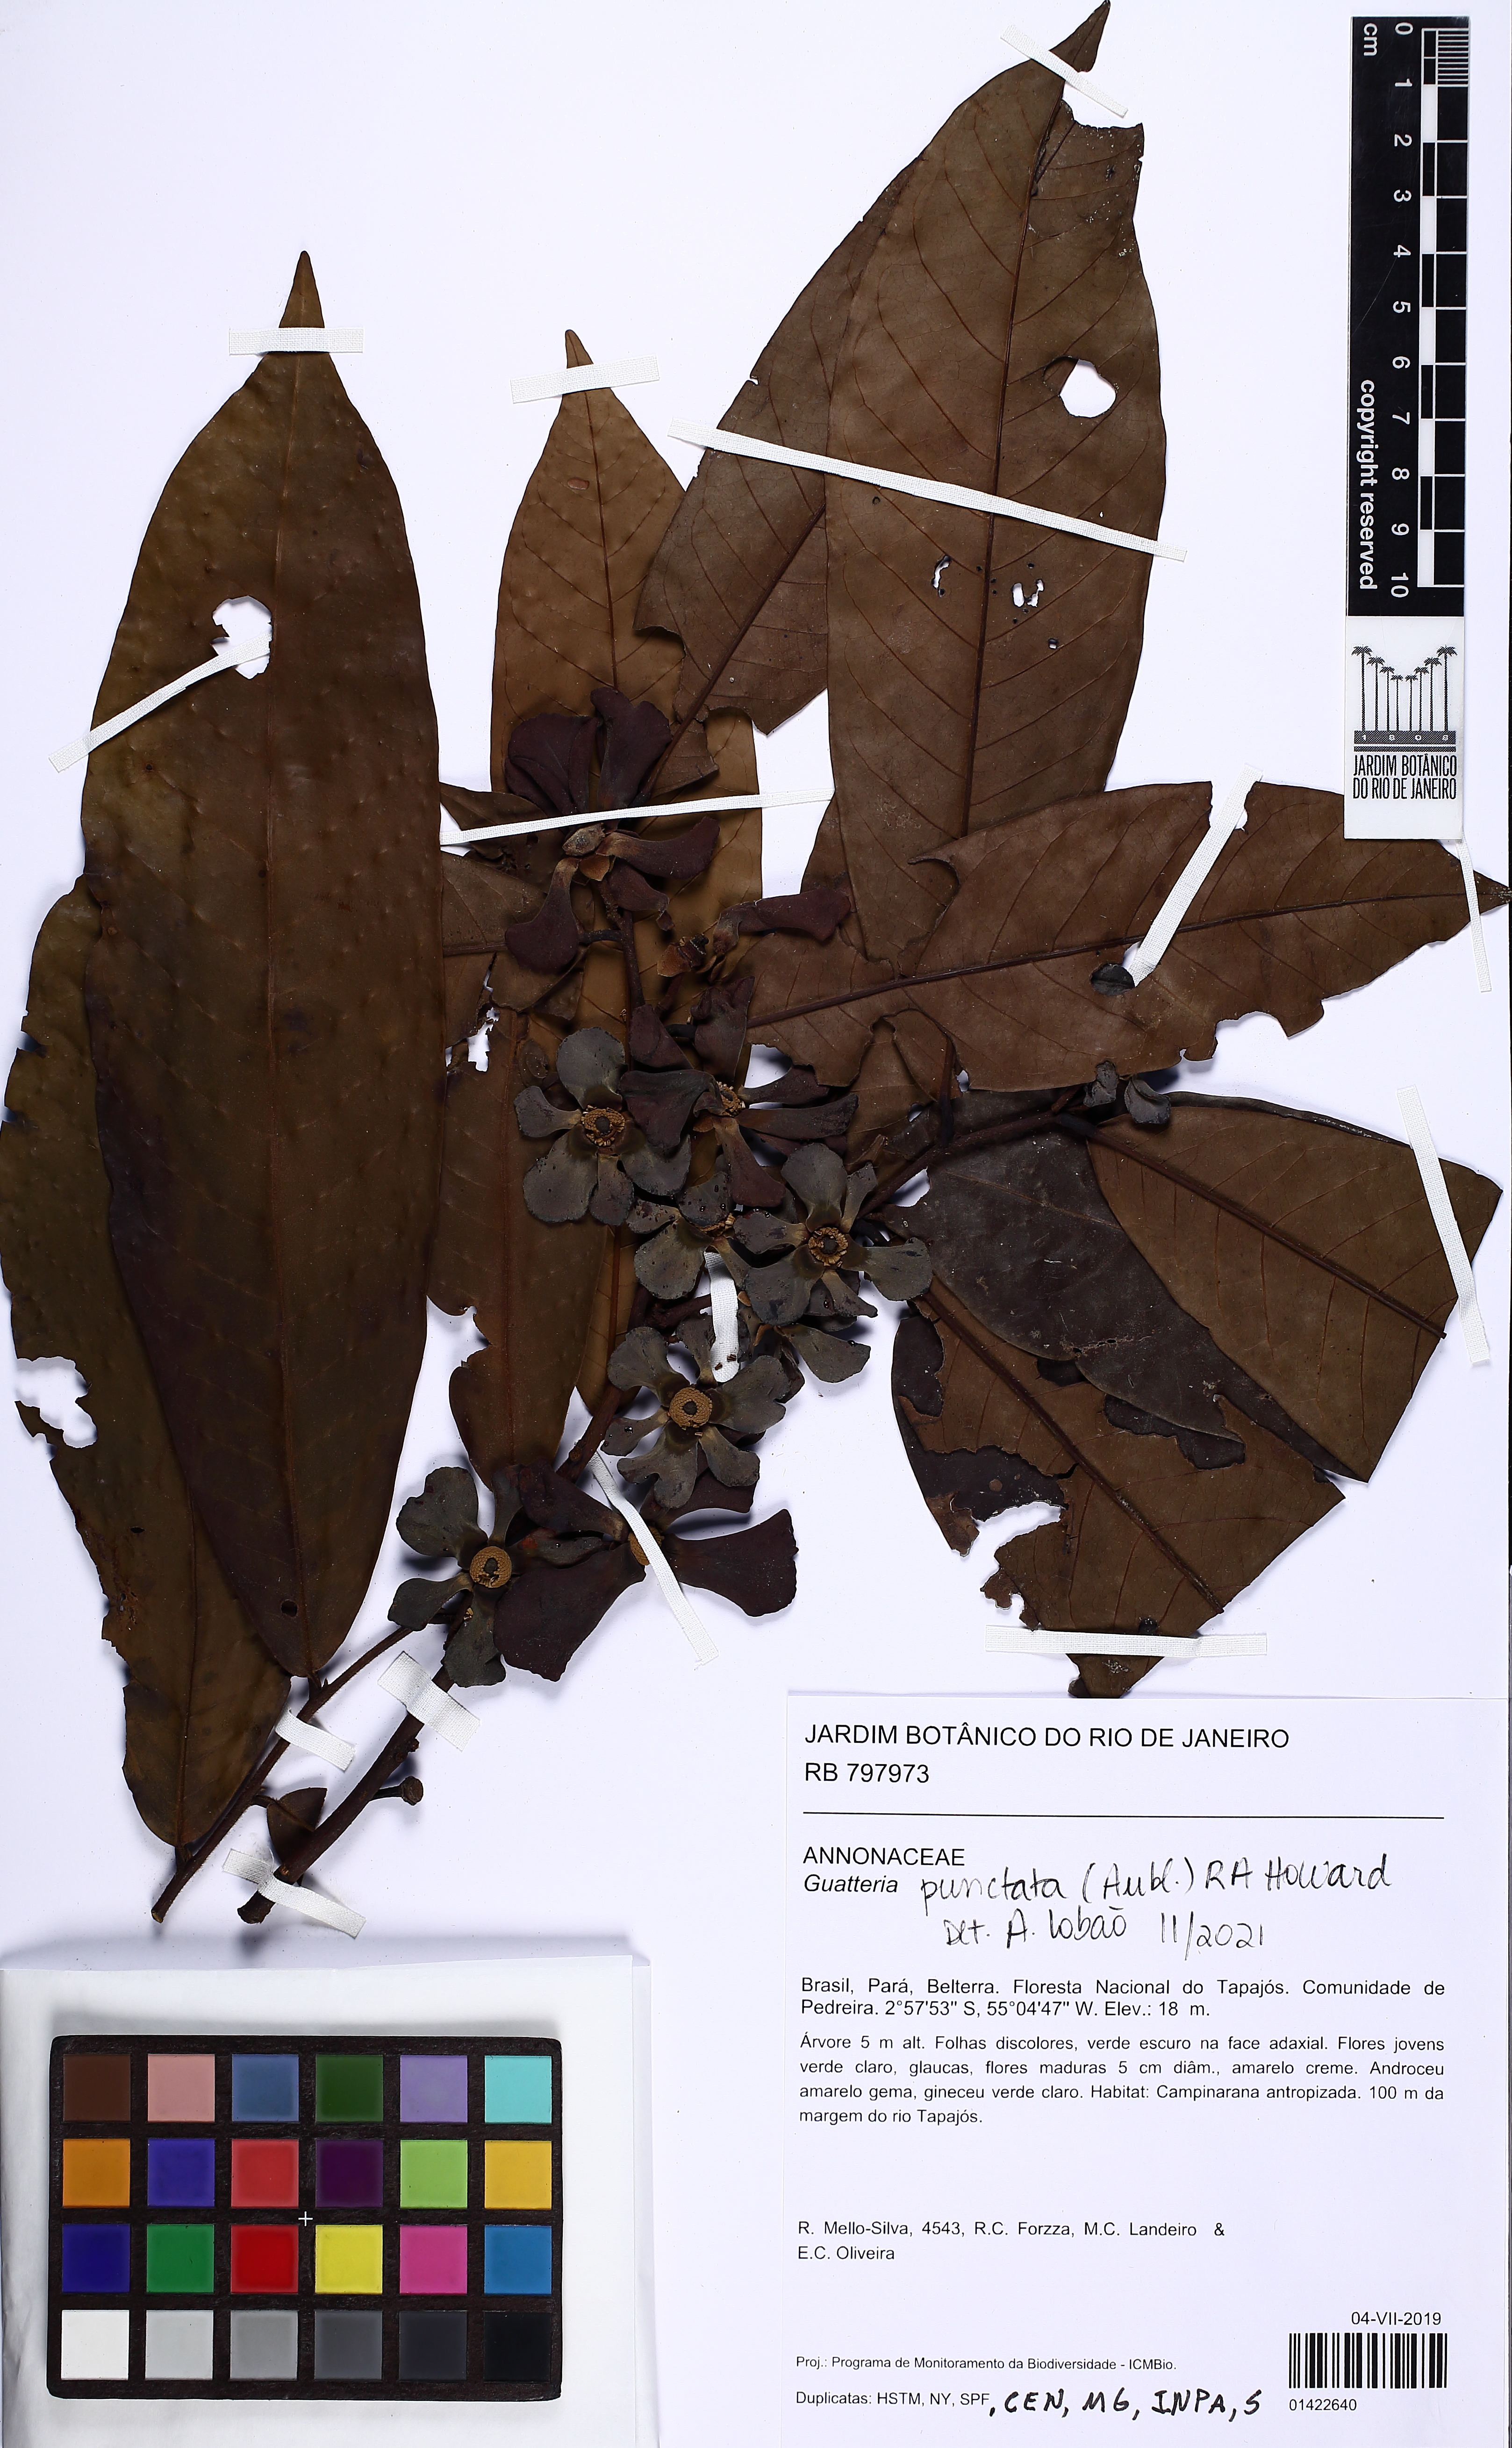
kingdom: Plantae
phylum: Tracheophyta
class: Magnoliopsida
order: Magnoliales
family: Annonaceae
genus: Guatteria
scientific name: Guatteria punctata
